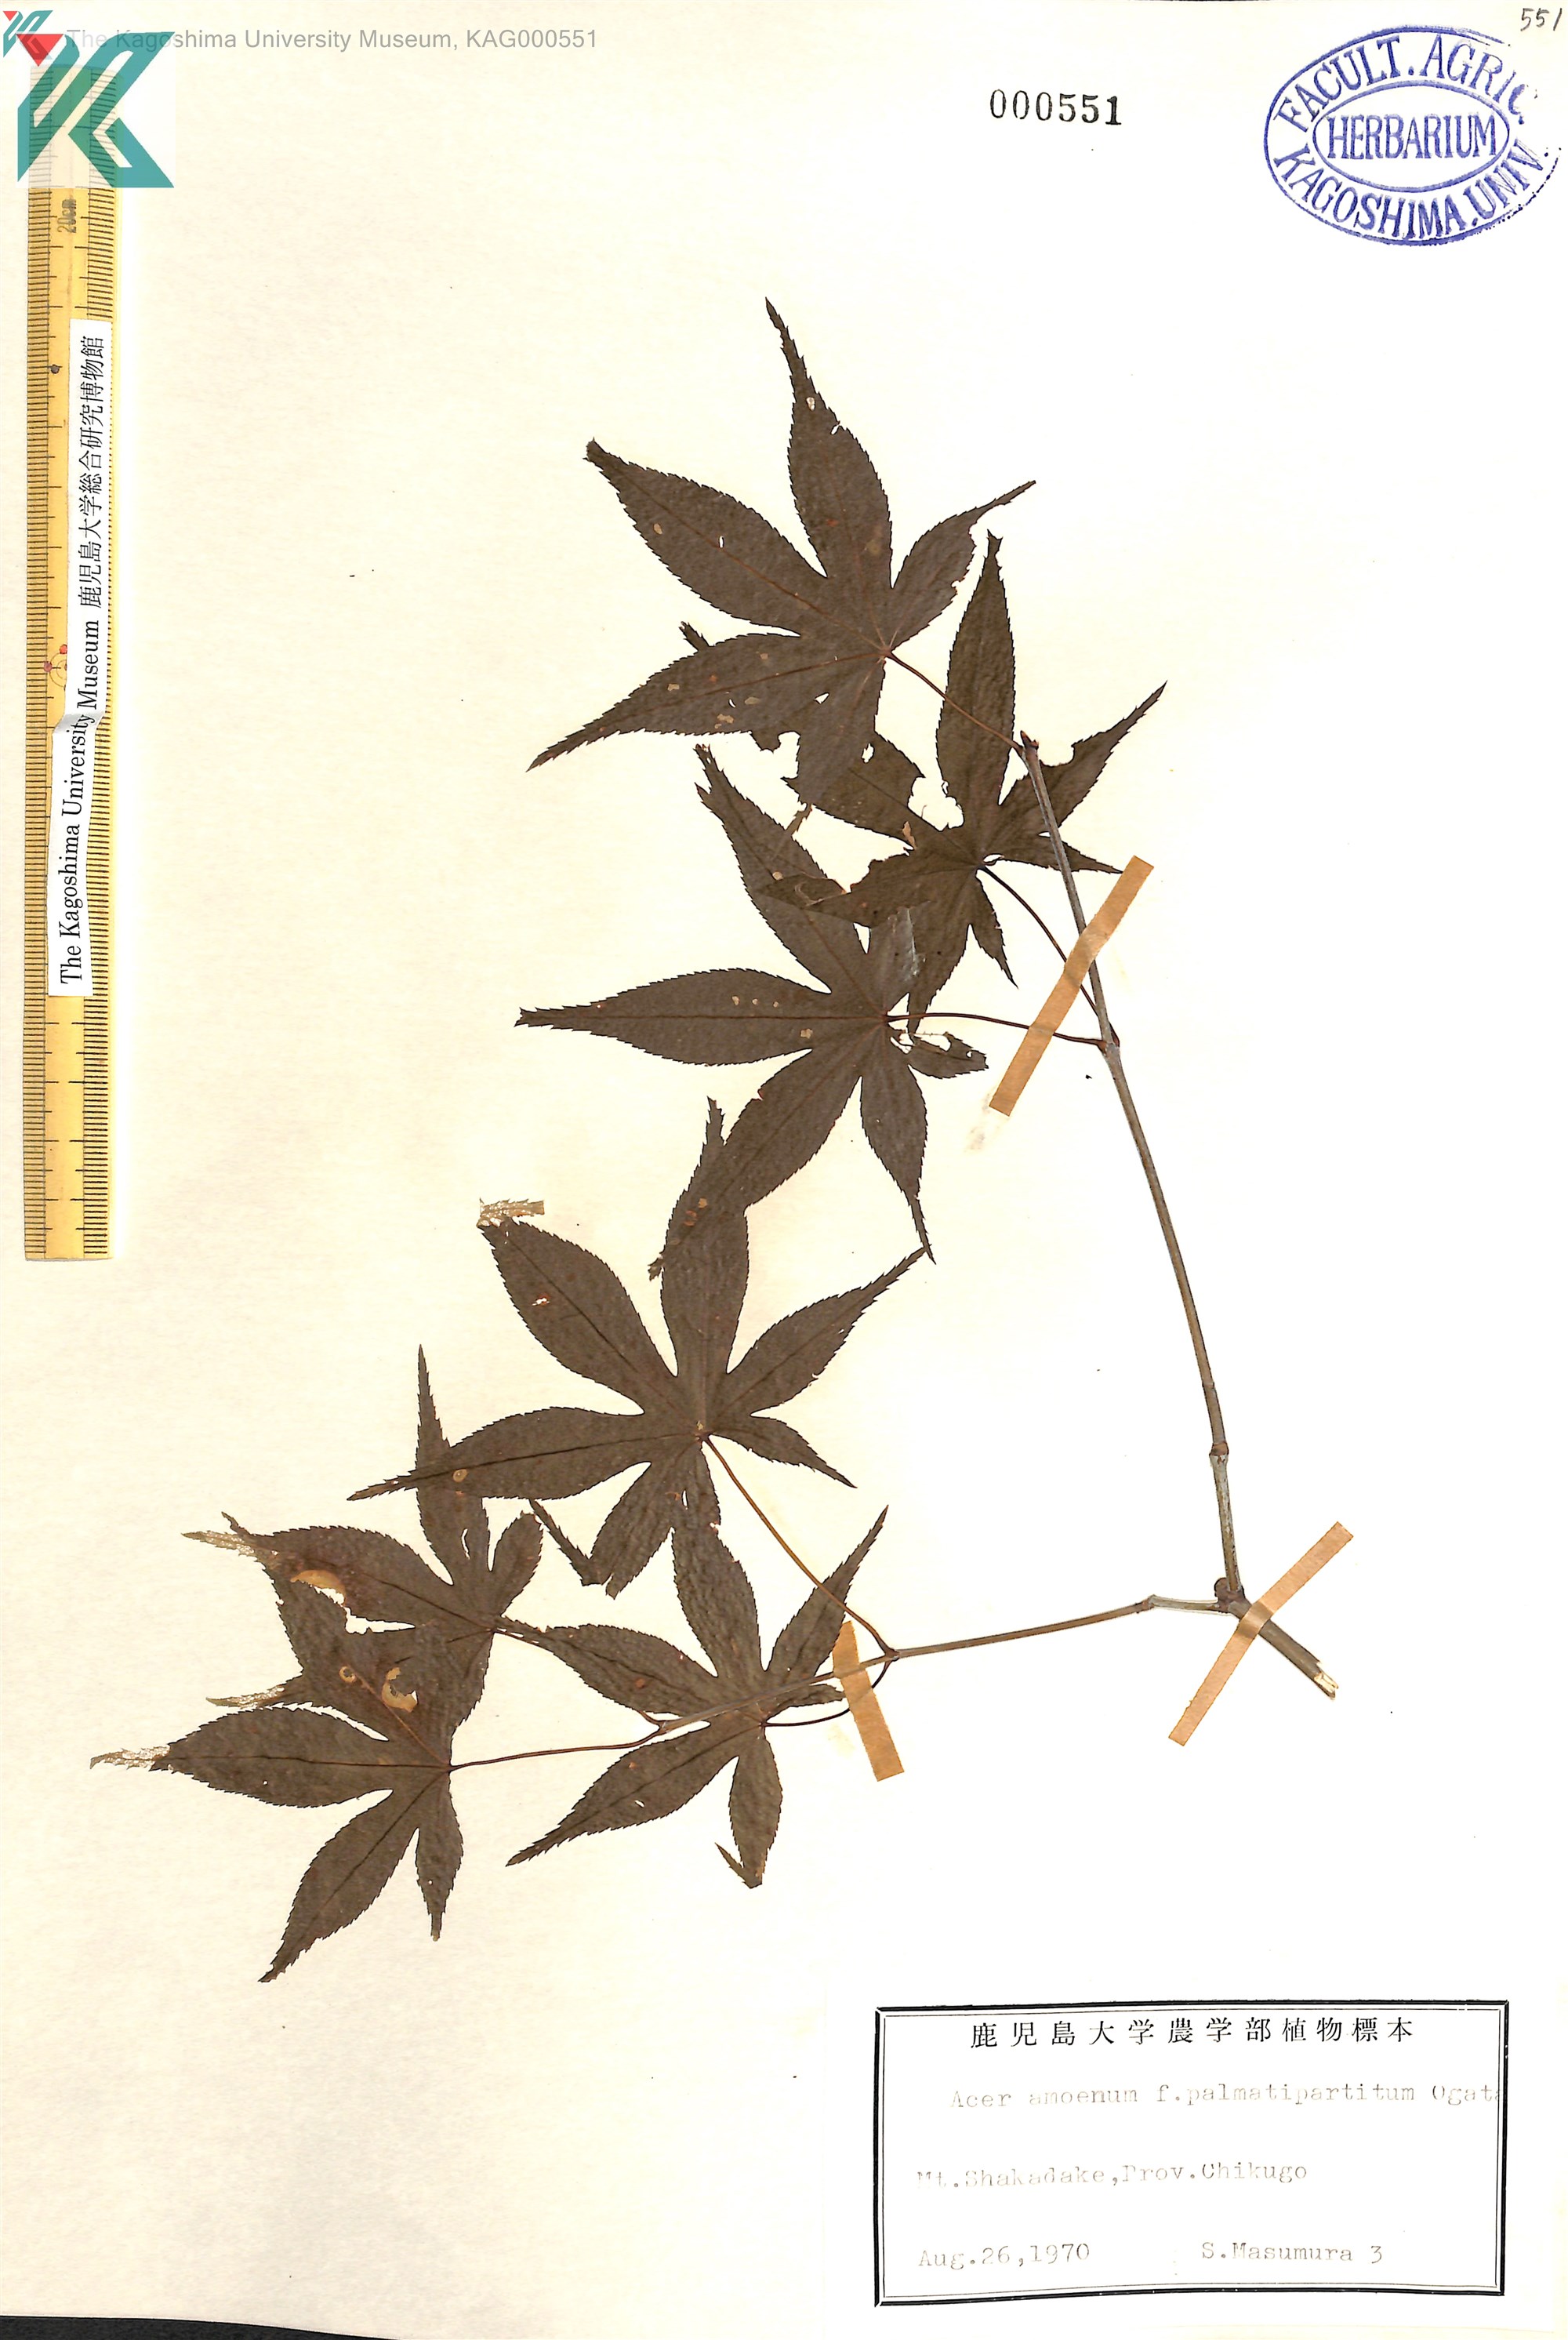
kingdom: Plantae
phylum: Tracheophyta
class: Magnoliopsida
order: Sapindales
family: Sapindaceae
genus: Acer
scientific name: Acer palmatum
